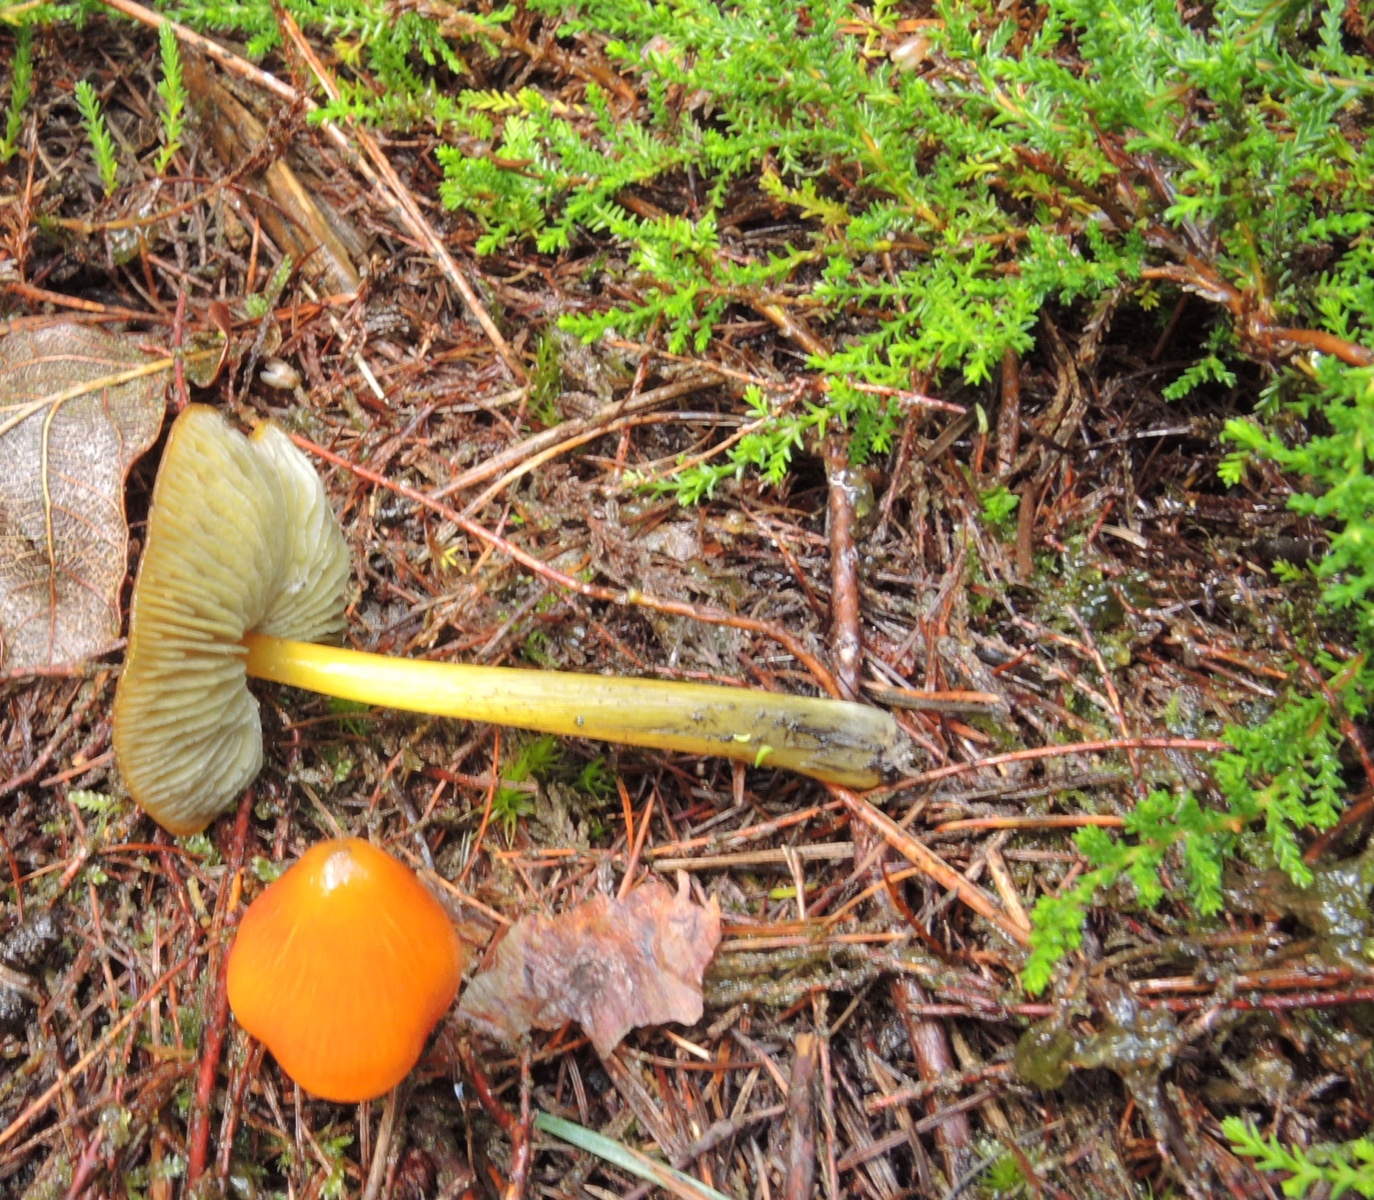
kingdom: Fungi
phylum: Basidiomycota
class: Agaricomycetes
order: Agaricales
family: Hygrophoraceae
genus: Hygrocybe
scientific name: Hygrocybe conica
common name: kegle-vokshat
